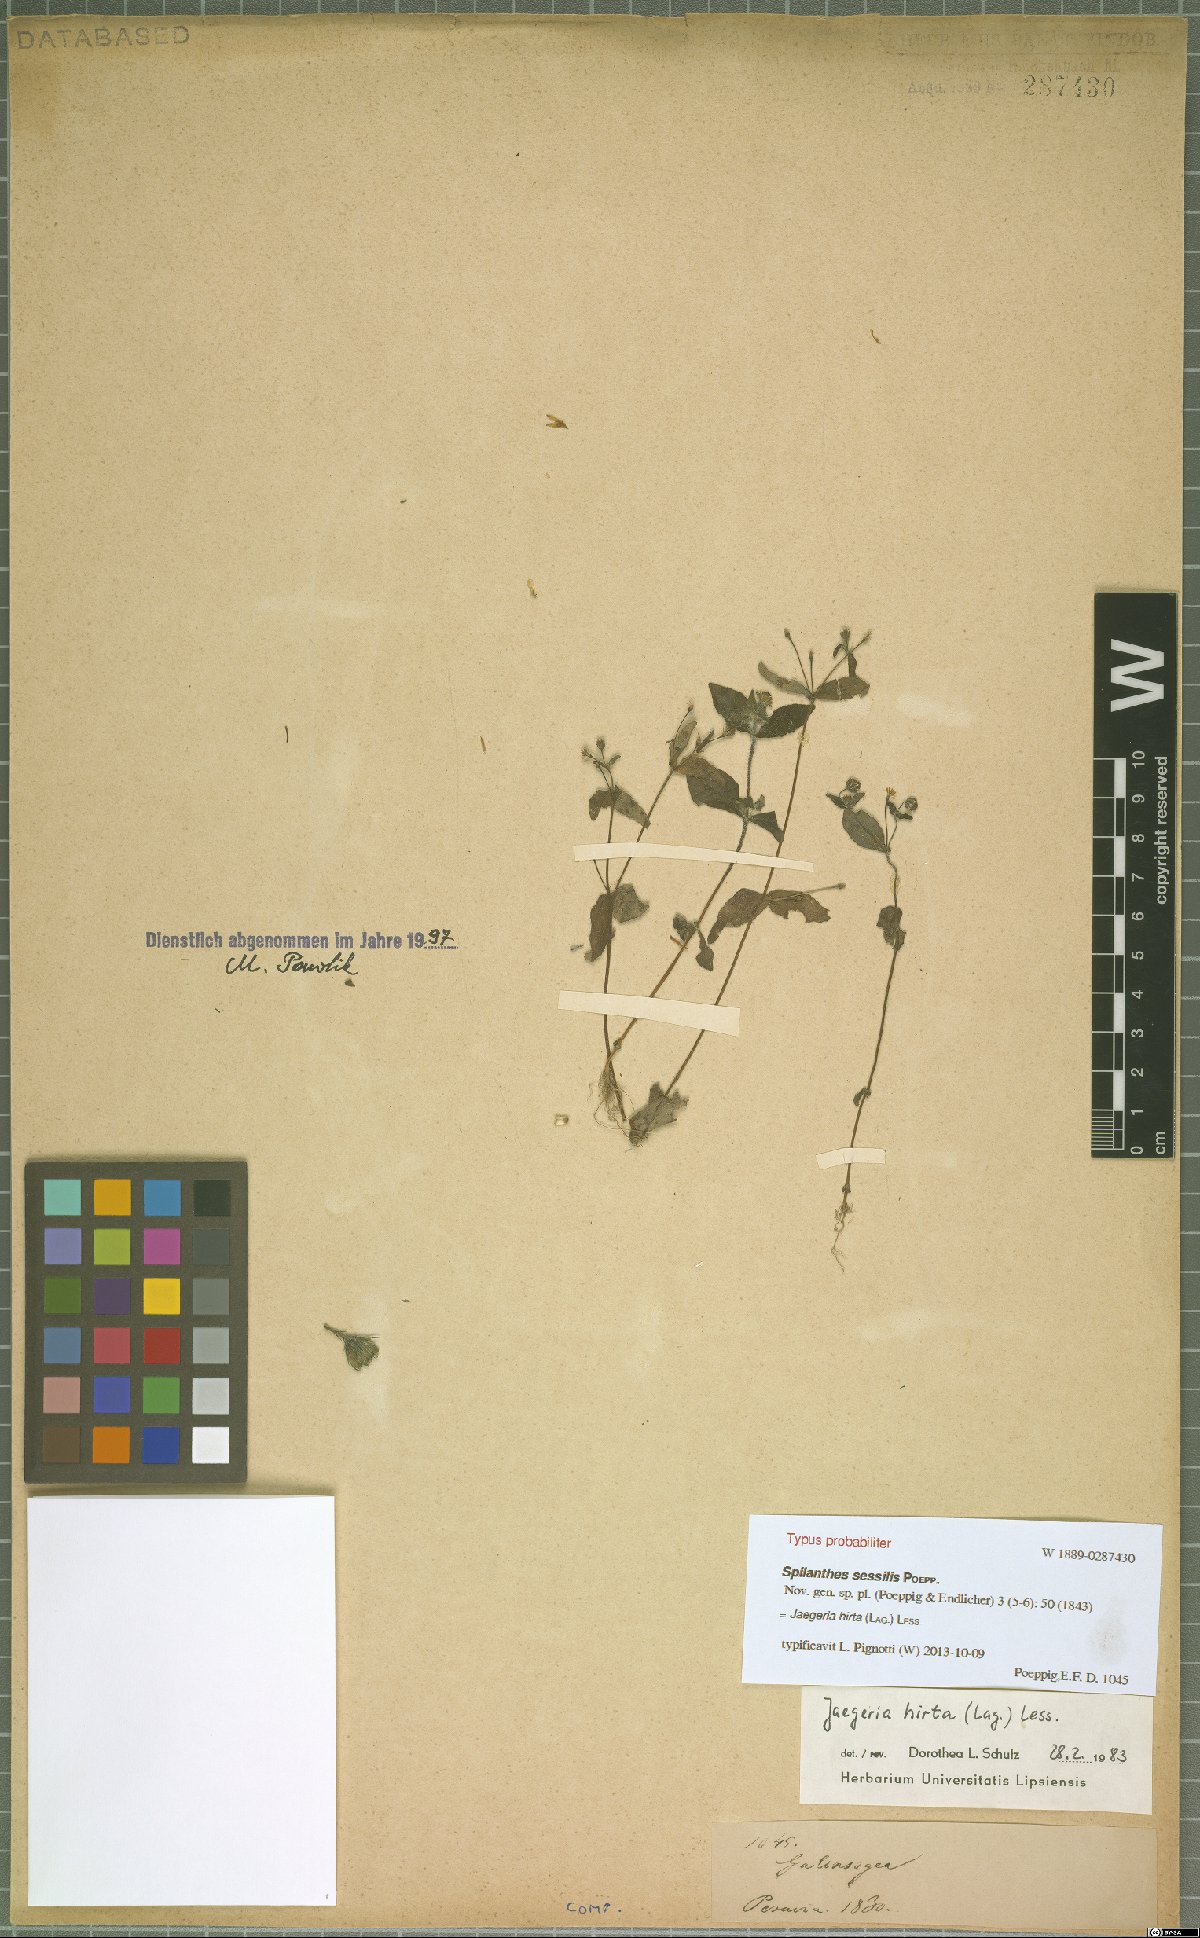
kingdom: Plantae
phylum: Tracheophyta
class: Magnoliopsida
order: Asterales
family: Asteraceae
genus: Jaegeria
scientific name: Jaegeria hirta
